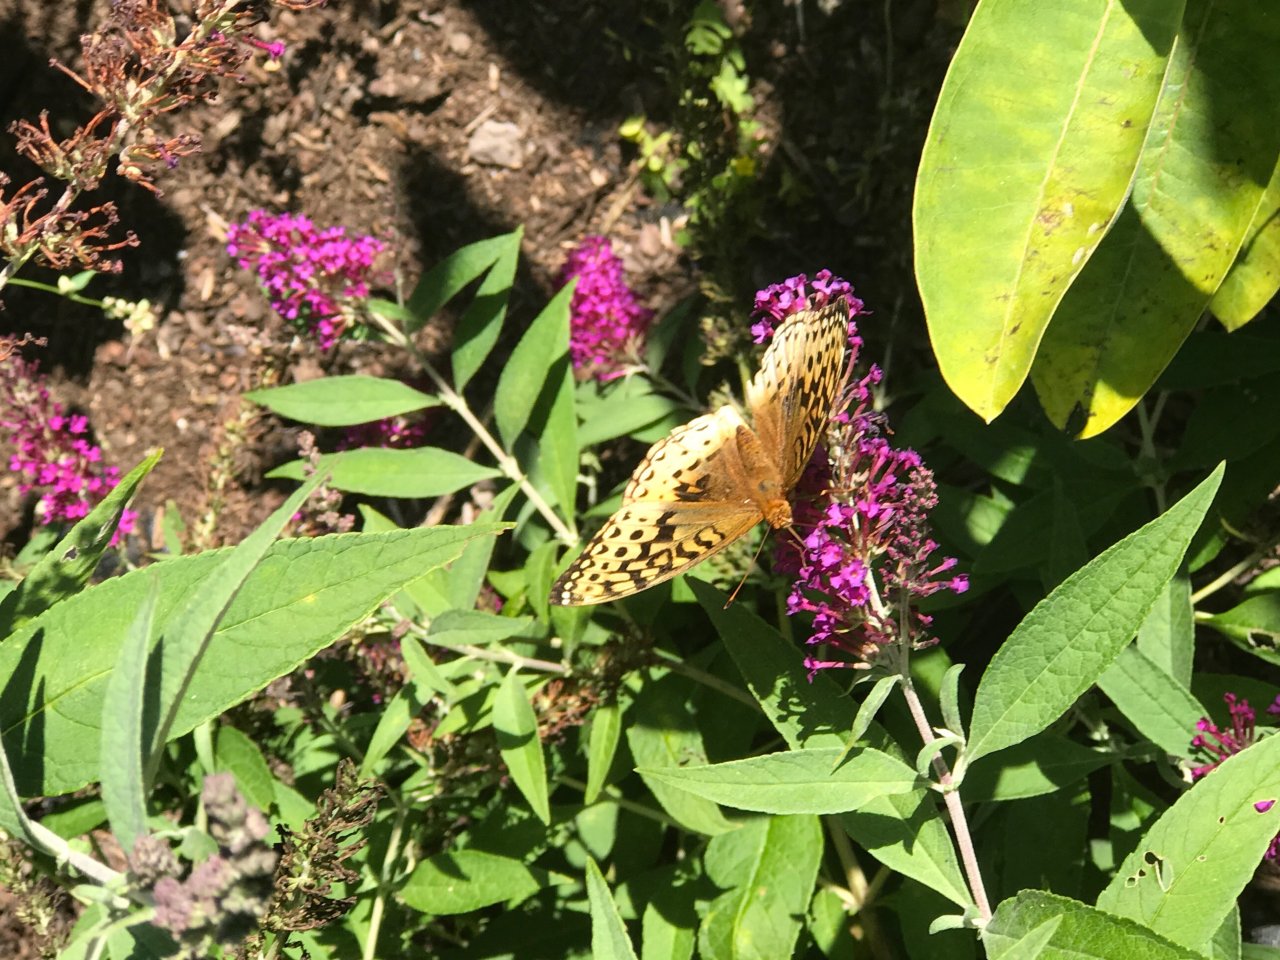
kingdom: Animalia
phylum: Arthropoda
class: Insecta
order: Lepidoptera
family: Nymphalidae
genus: Speyeria
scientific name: Speyeria cybele
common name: Great Spangled Fritillary
